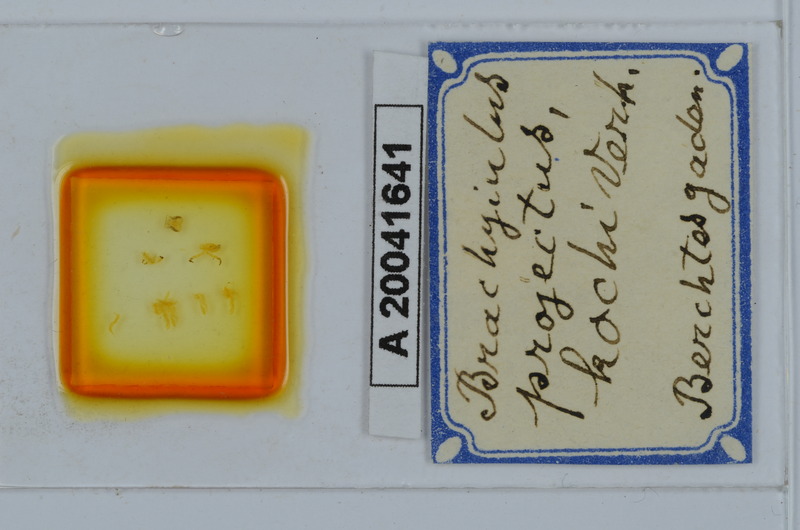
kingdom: Animalia
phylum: Arthropoda
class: Diplopoda
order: Julida
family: Julidae
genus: Megaphyllum
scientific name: Megaphyllum projectum
